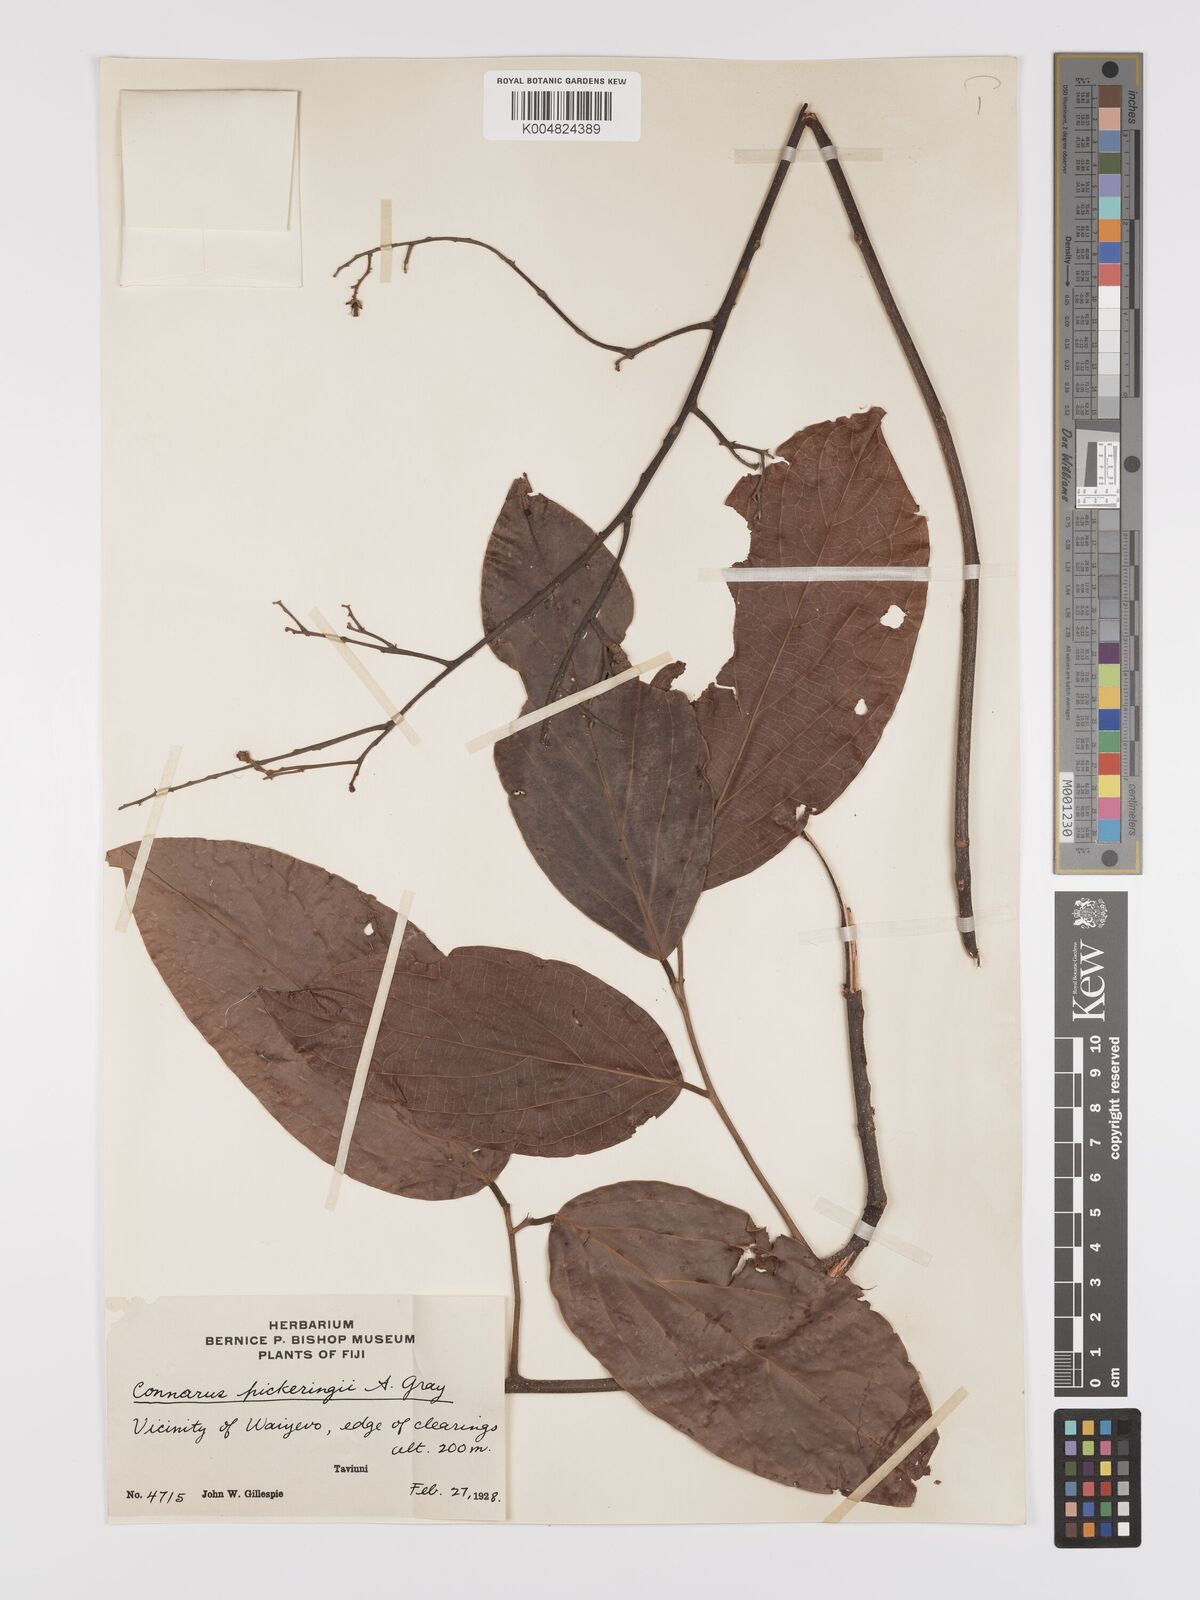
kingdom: Plantae
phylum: Tracheophyta
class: Magnoliopsida
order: Oxalidales
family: Connaraceae
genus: Connarus
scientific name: Connarus pickeringii
